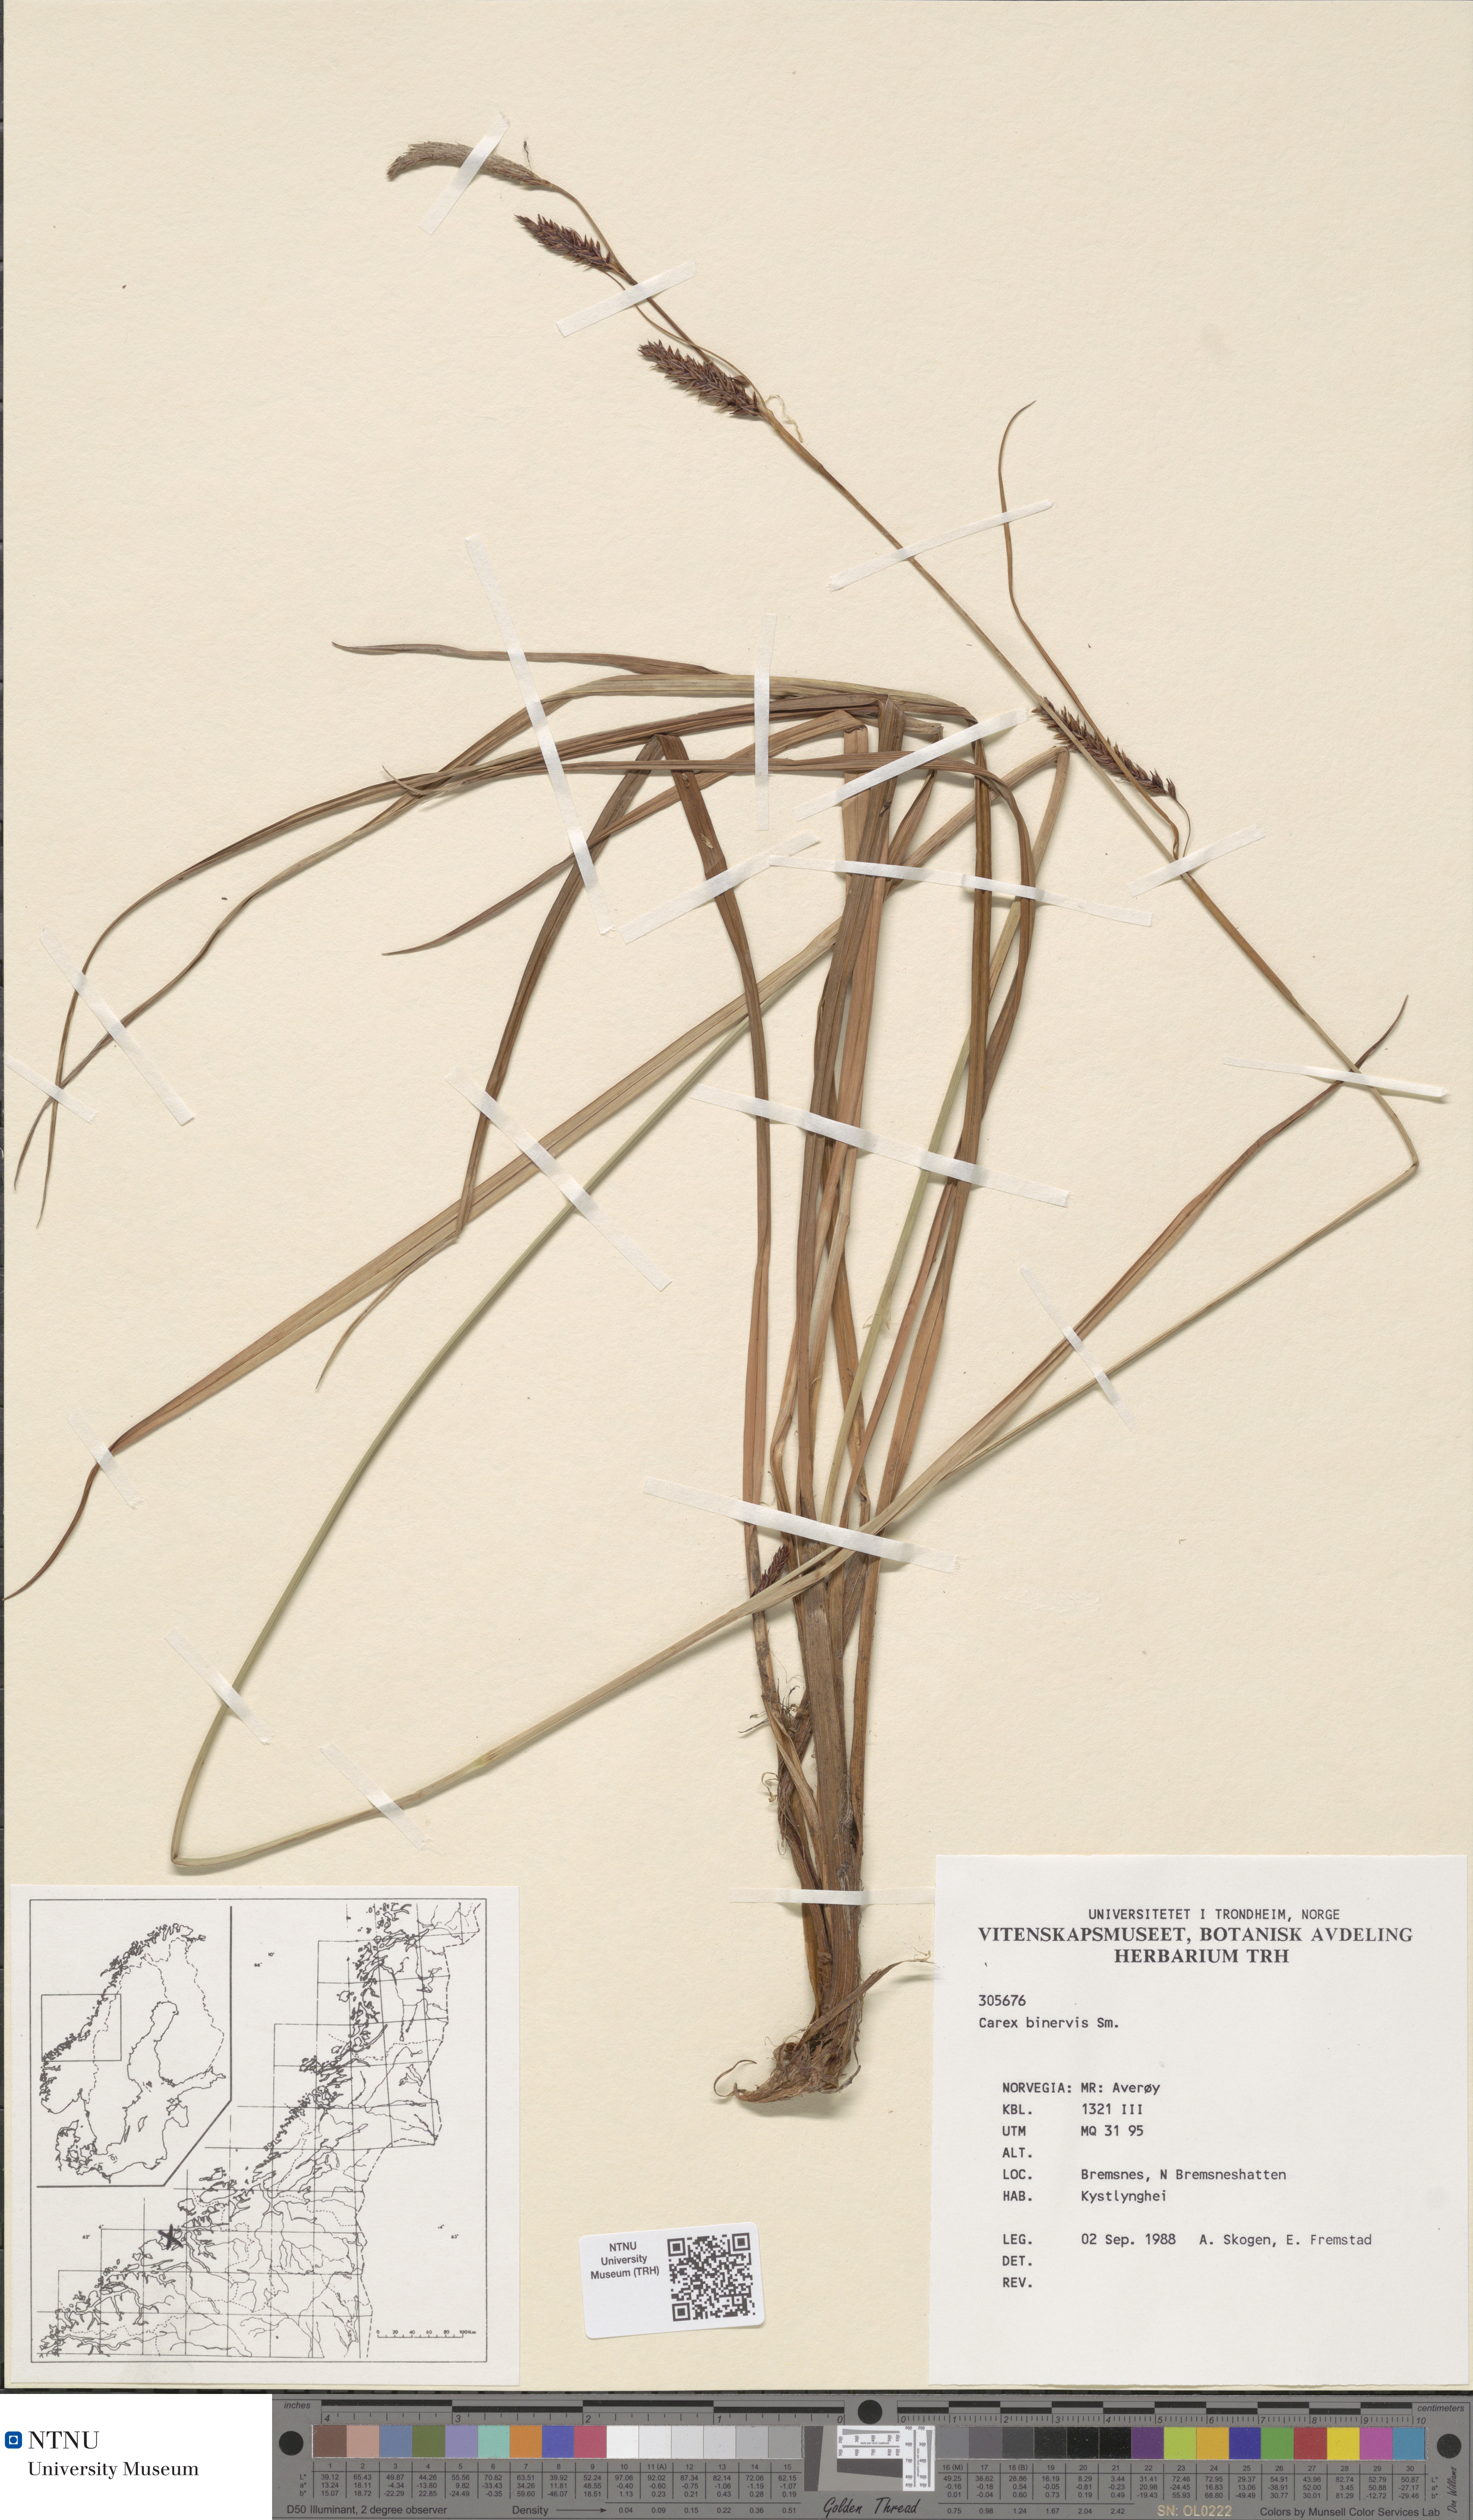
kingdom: Plantae
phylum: Tracheophyta
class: Liliopsida
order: Poales
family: Cyperaceae
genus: Carex
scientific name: Carex binervis
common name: Green-ribbed sedge
